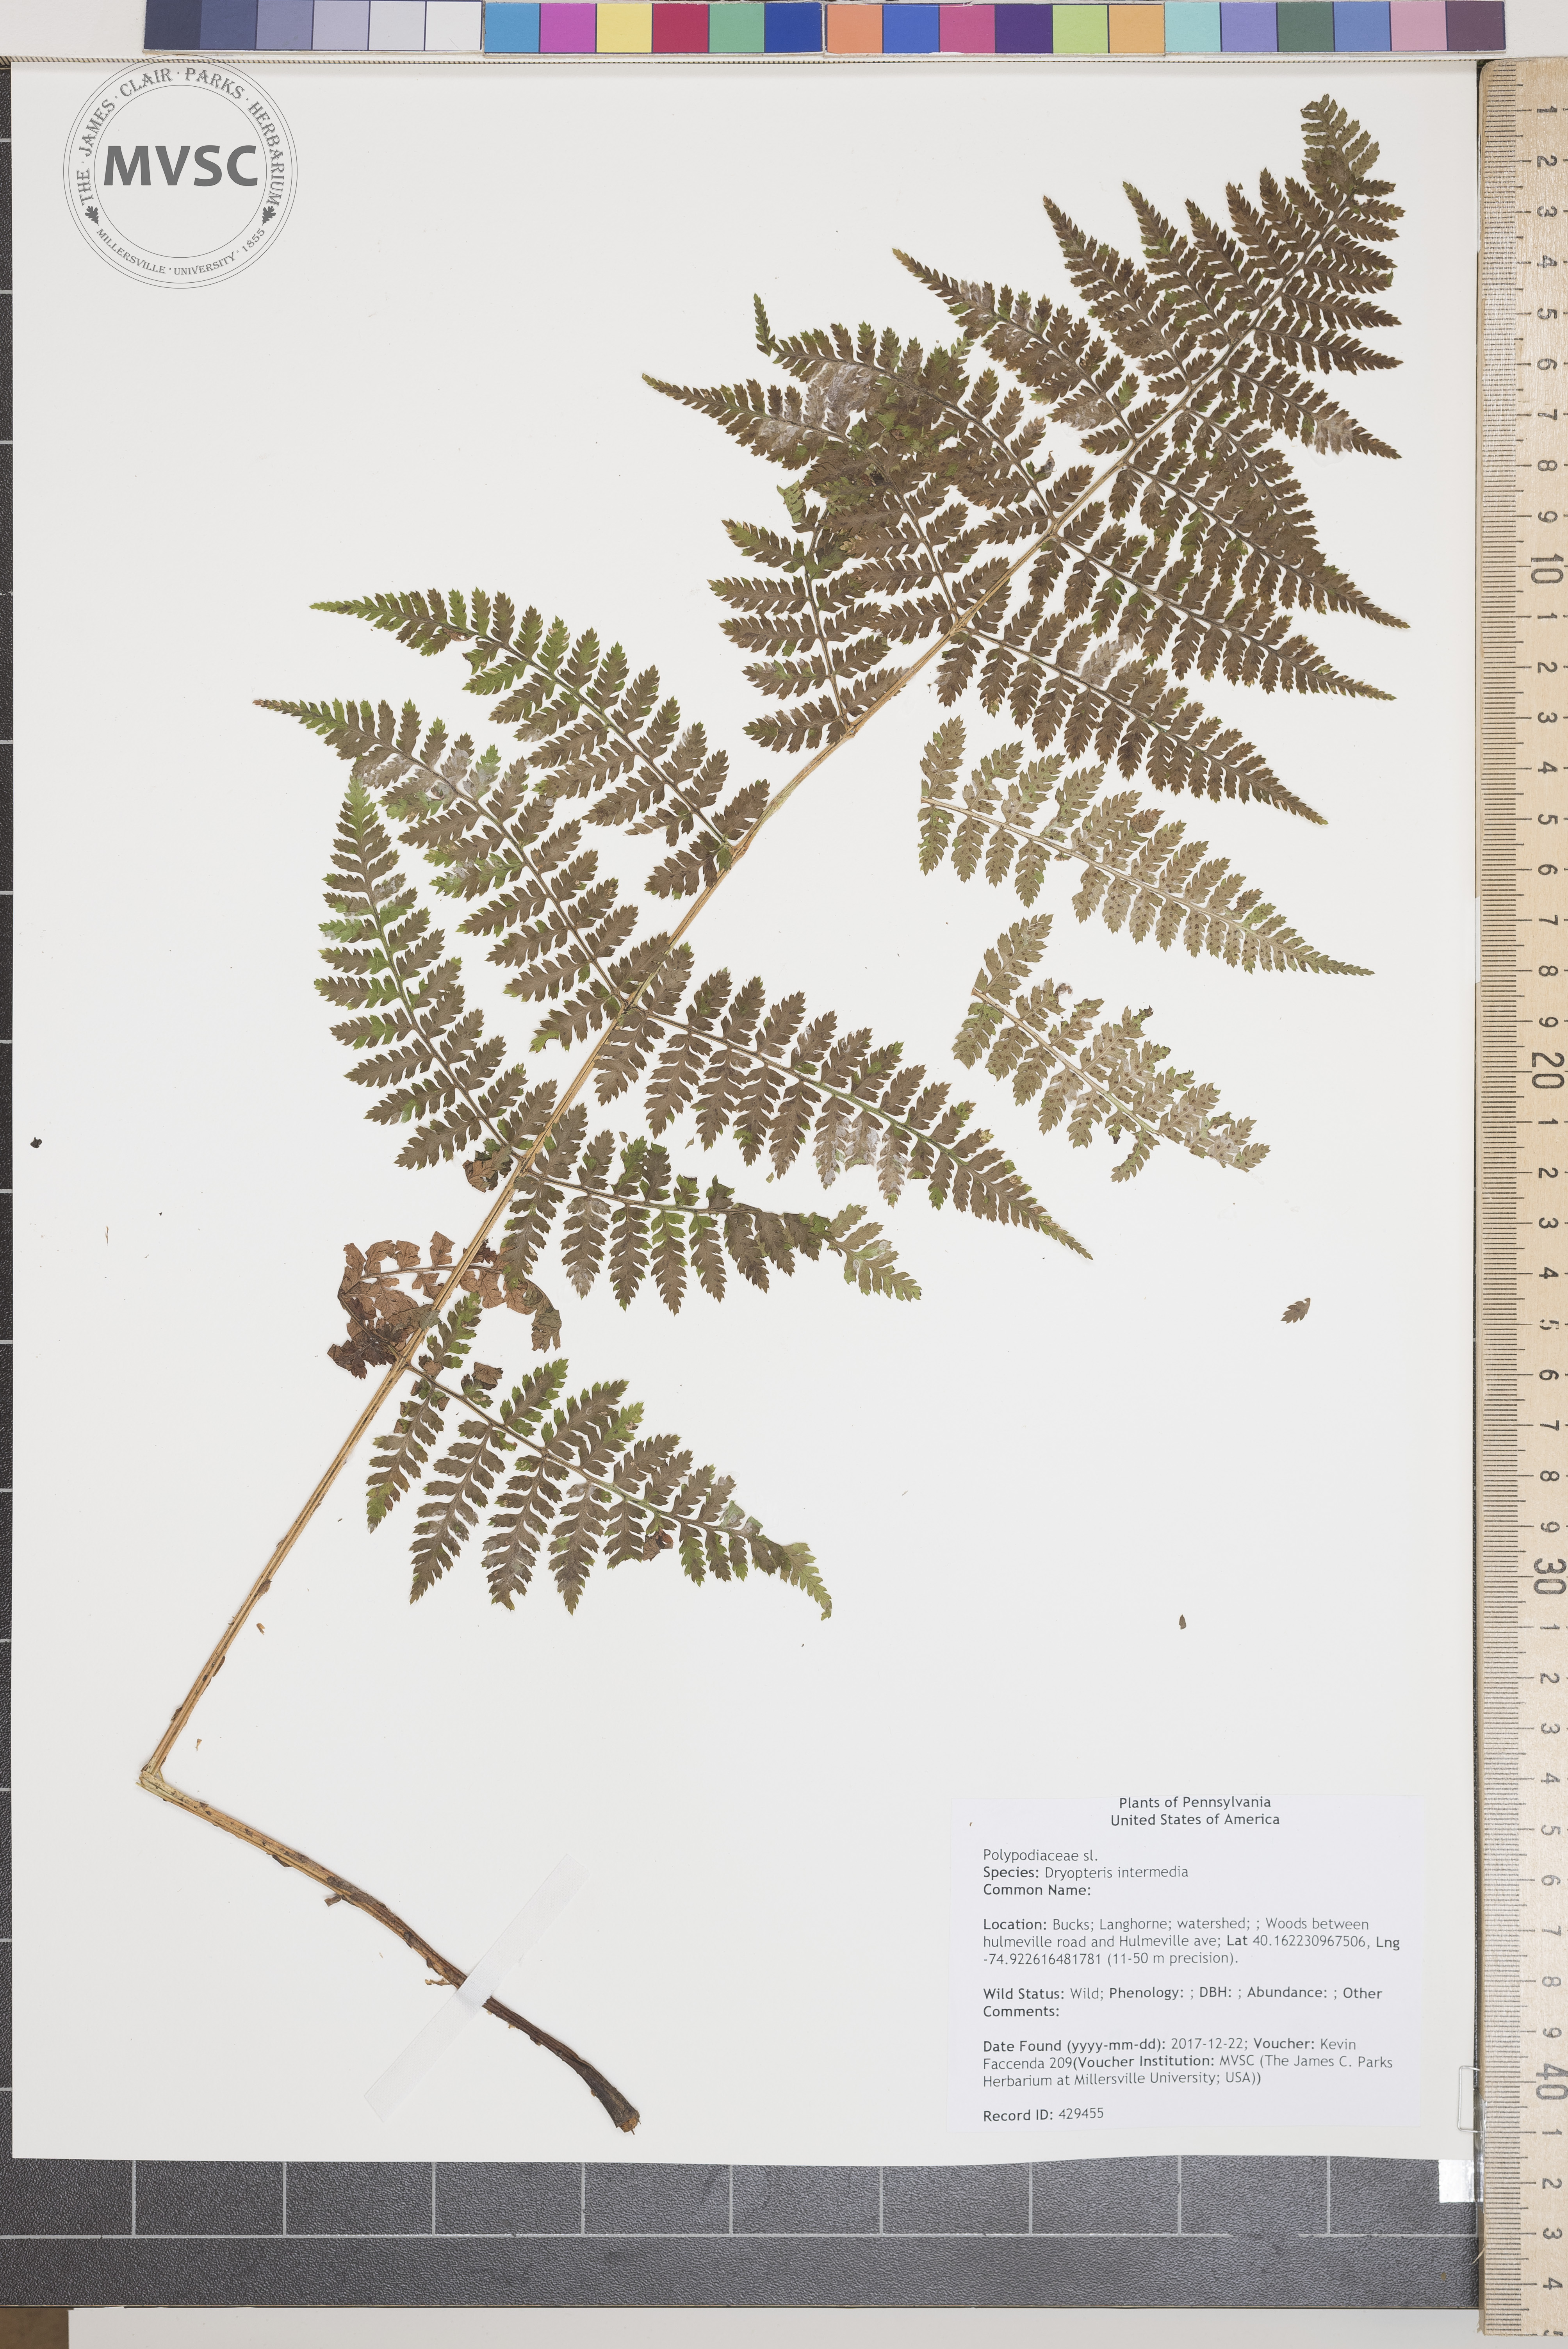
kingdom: Plantae
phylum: Tracheophyta
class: Polypodiopsida
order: Polypodiales
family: Dryopteridaceae
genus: Dryopteris
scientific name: Dryopteris intermedia
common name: Evergreen wood fern
